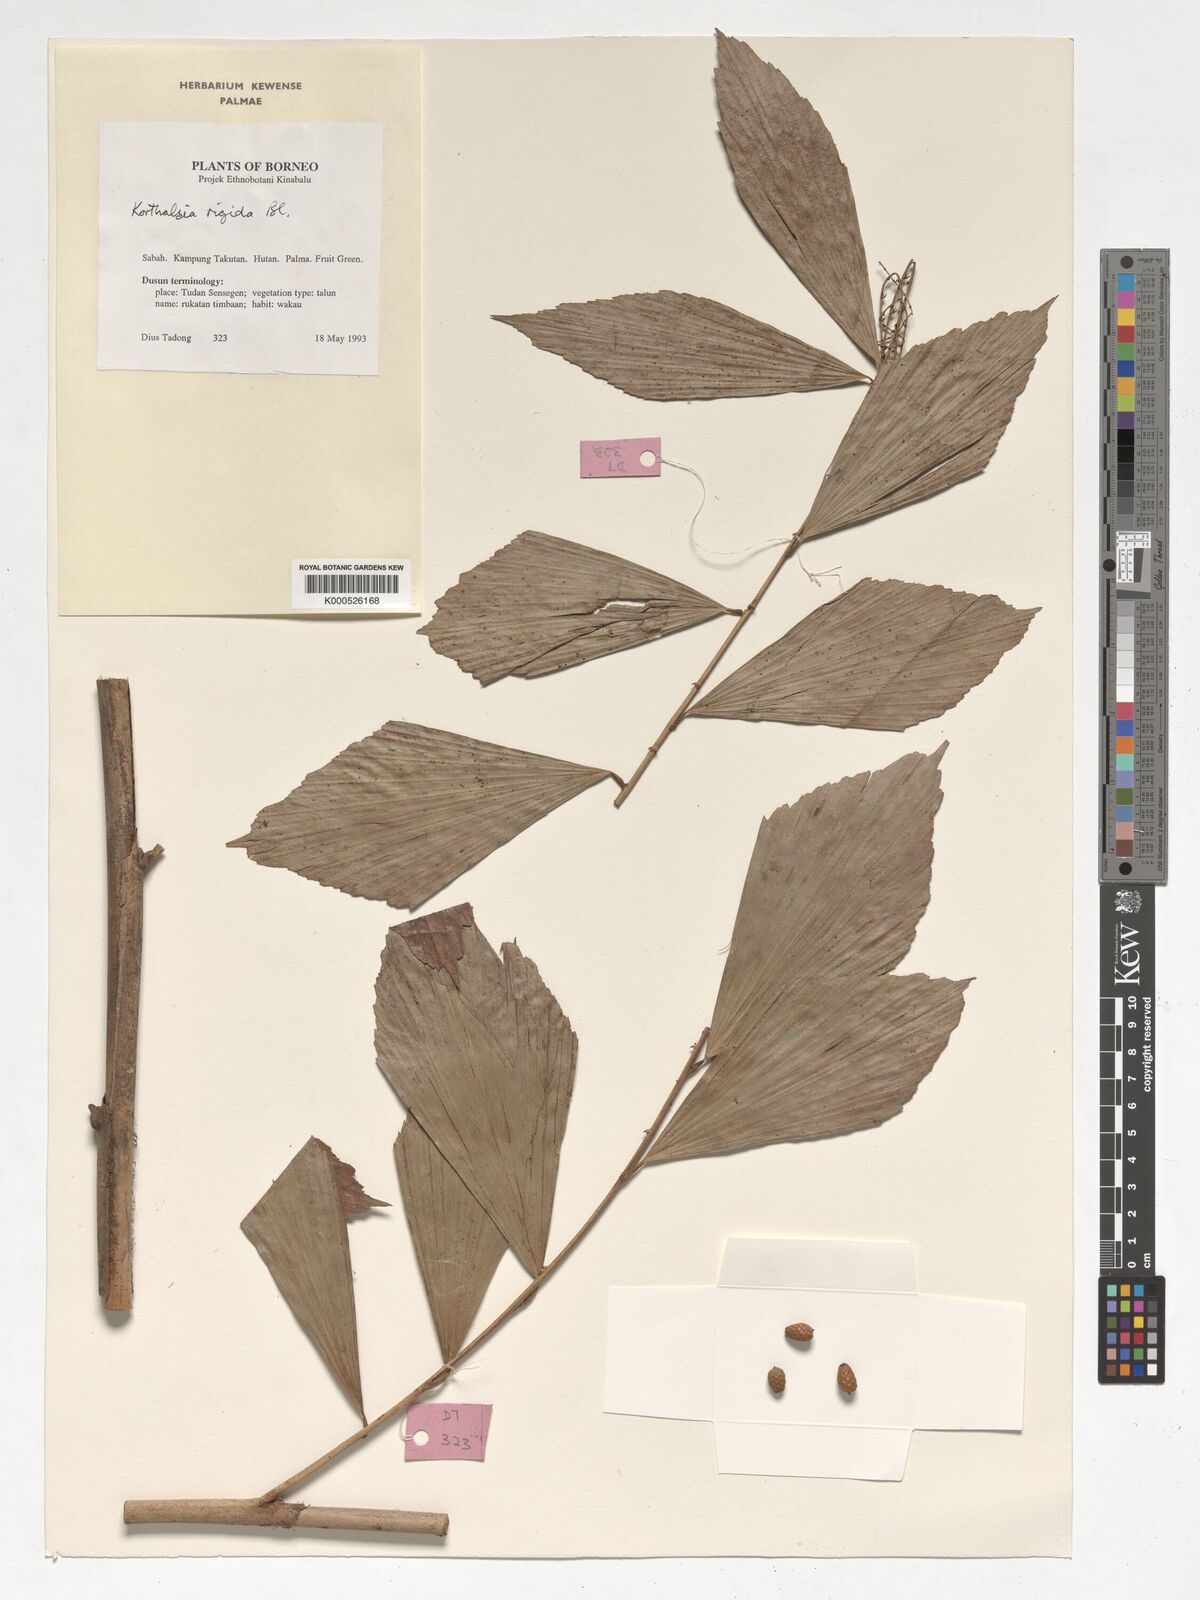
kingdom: Plantae
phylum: Tracheophyta
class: Liliopsida
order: Arecales
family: Arecaceae
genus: Korthalsia
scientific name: Korthalsia rigida
